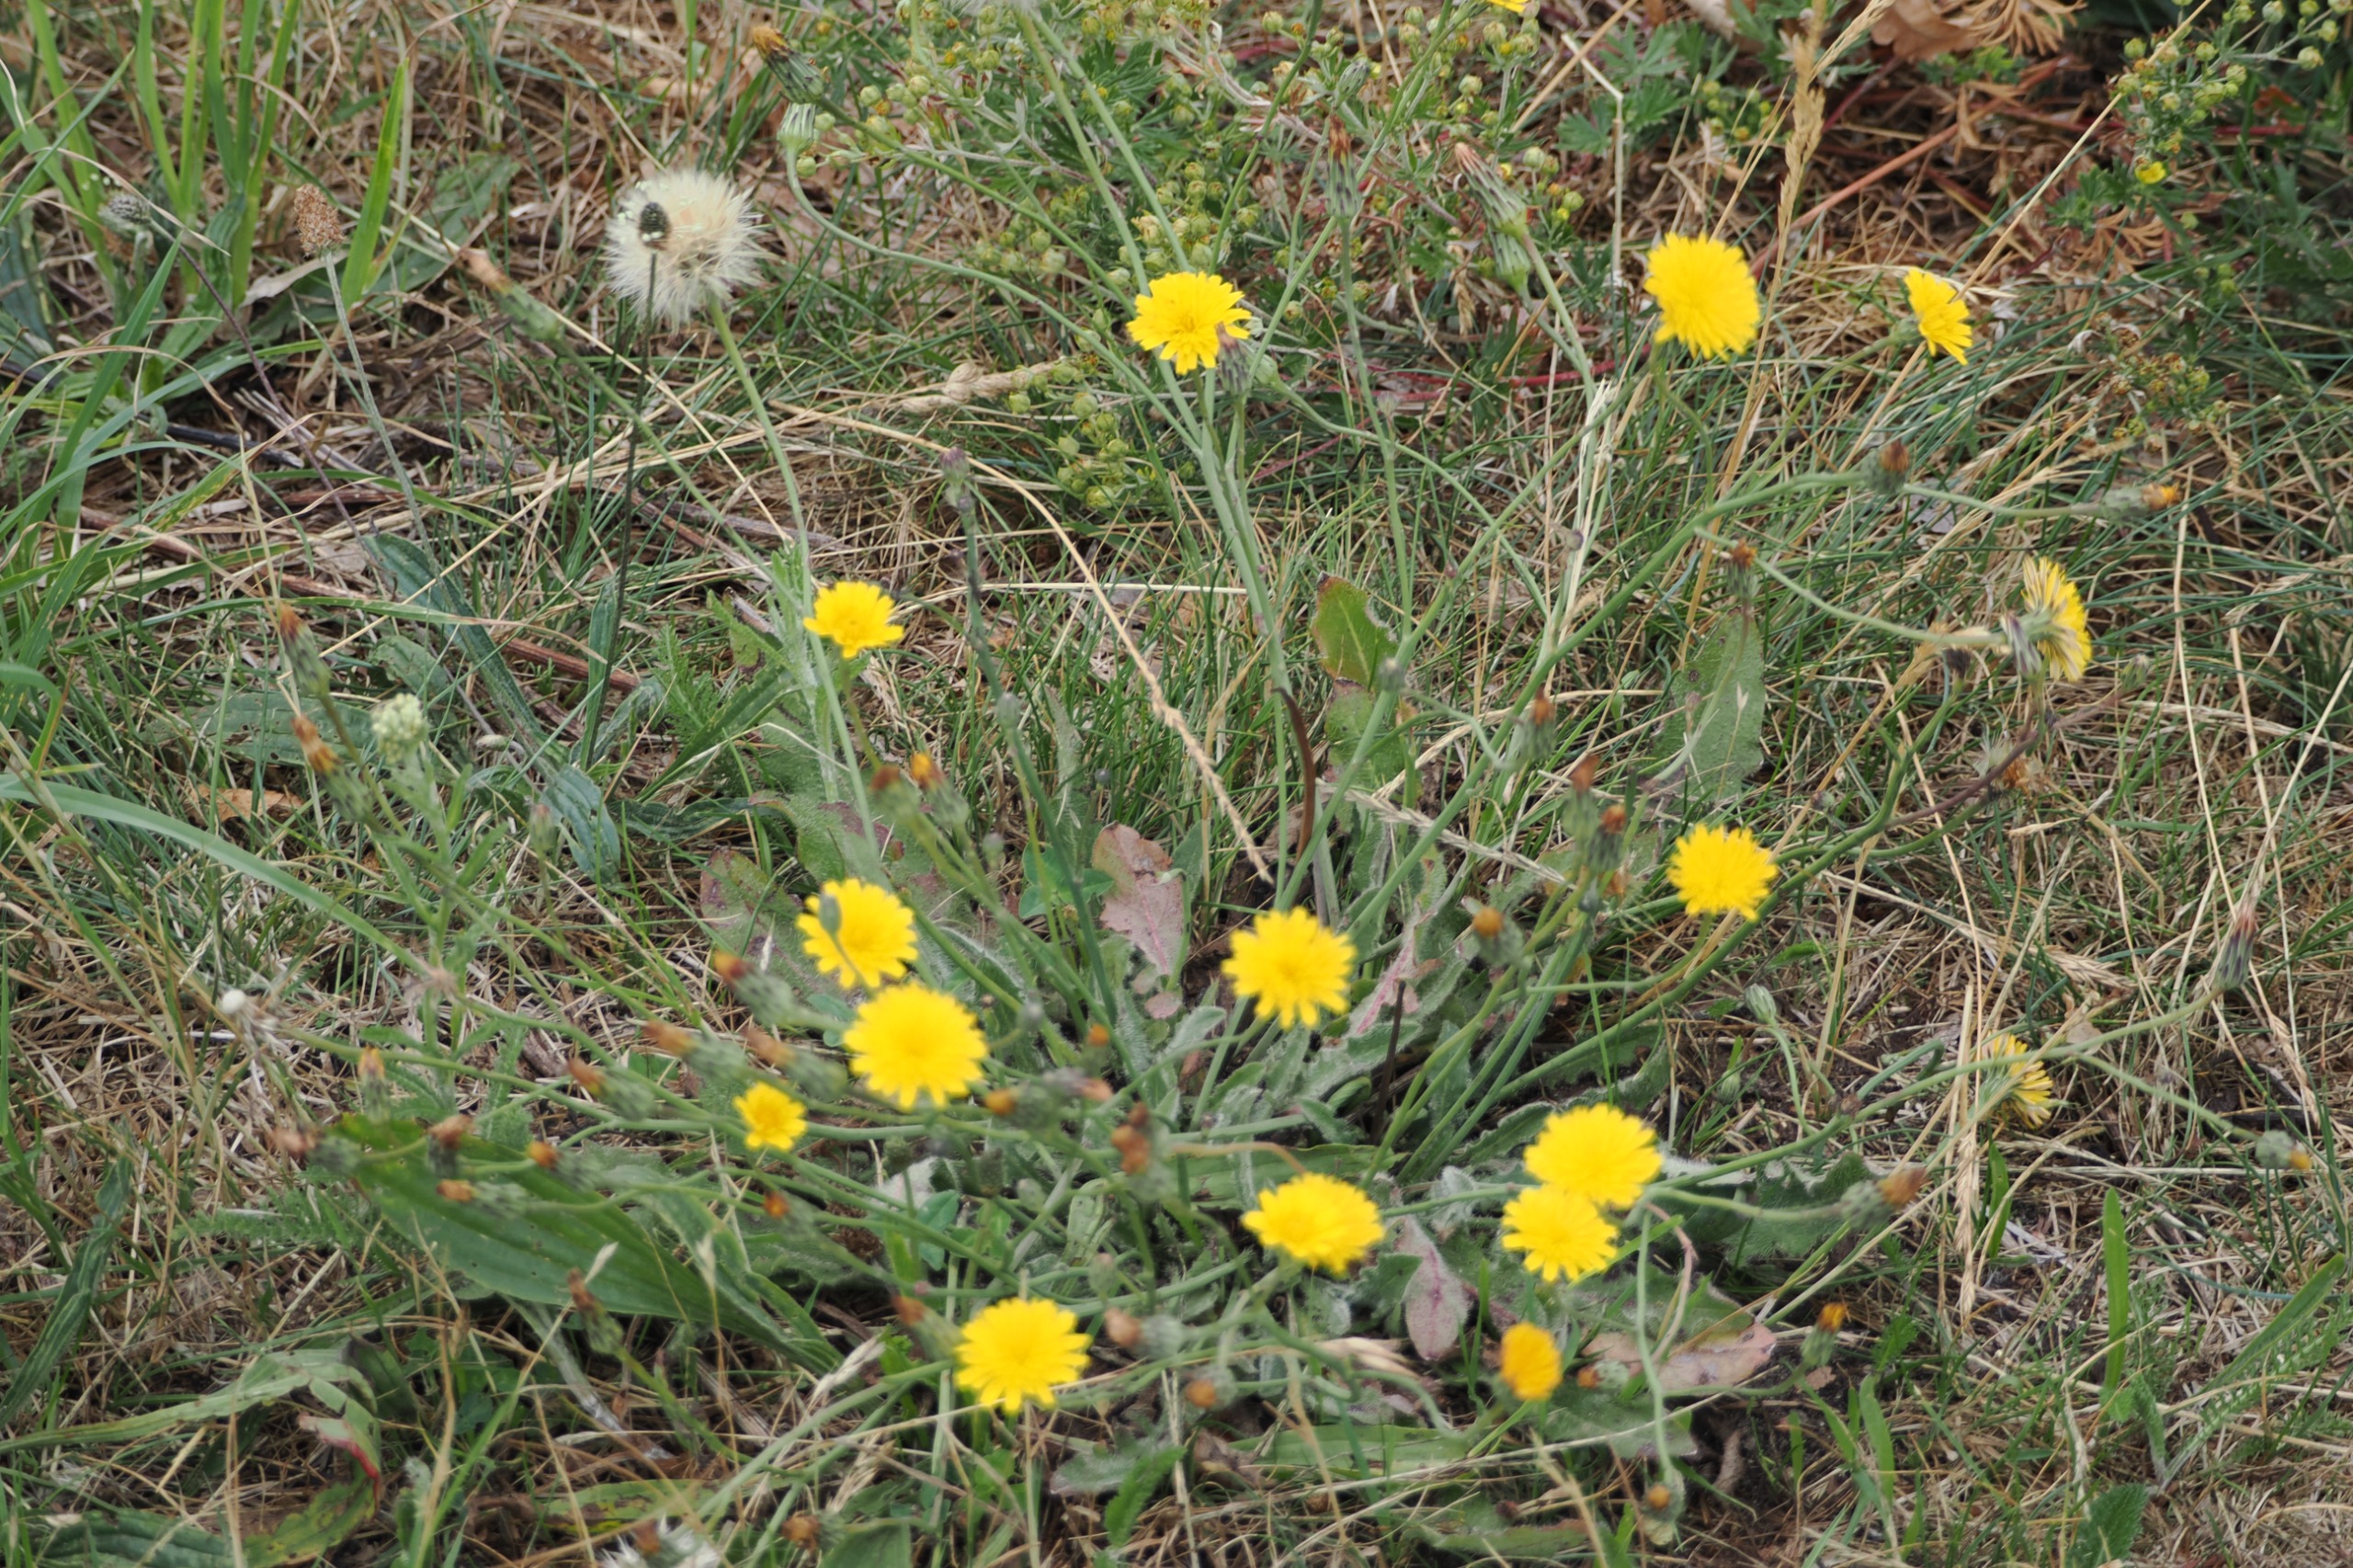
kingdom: Plantae
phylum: Tracheophyta
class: Magnoliopsida
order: Asterales
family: Asteraceae
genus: Hypochaeris
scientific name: Hypochaeris radicata
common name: Almindelig kongepen
